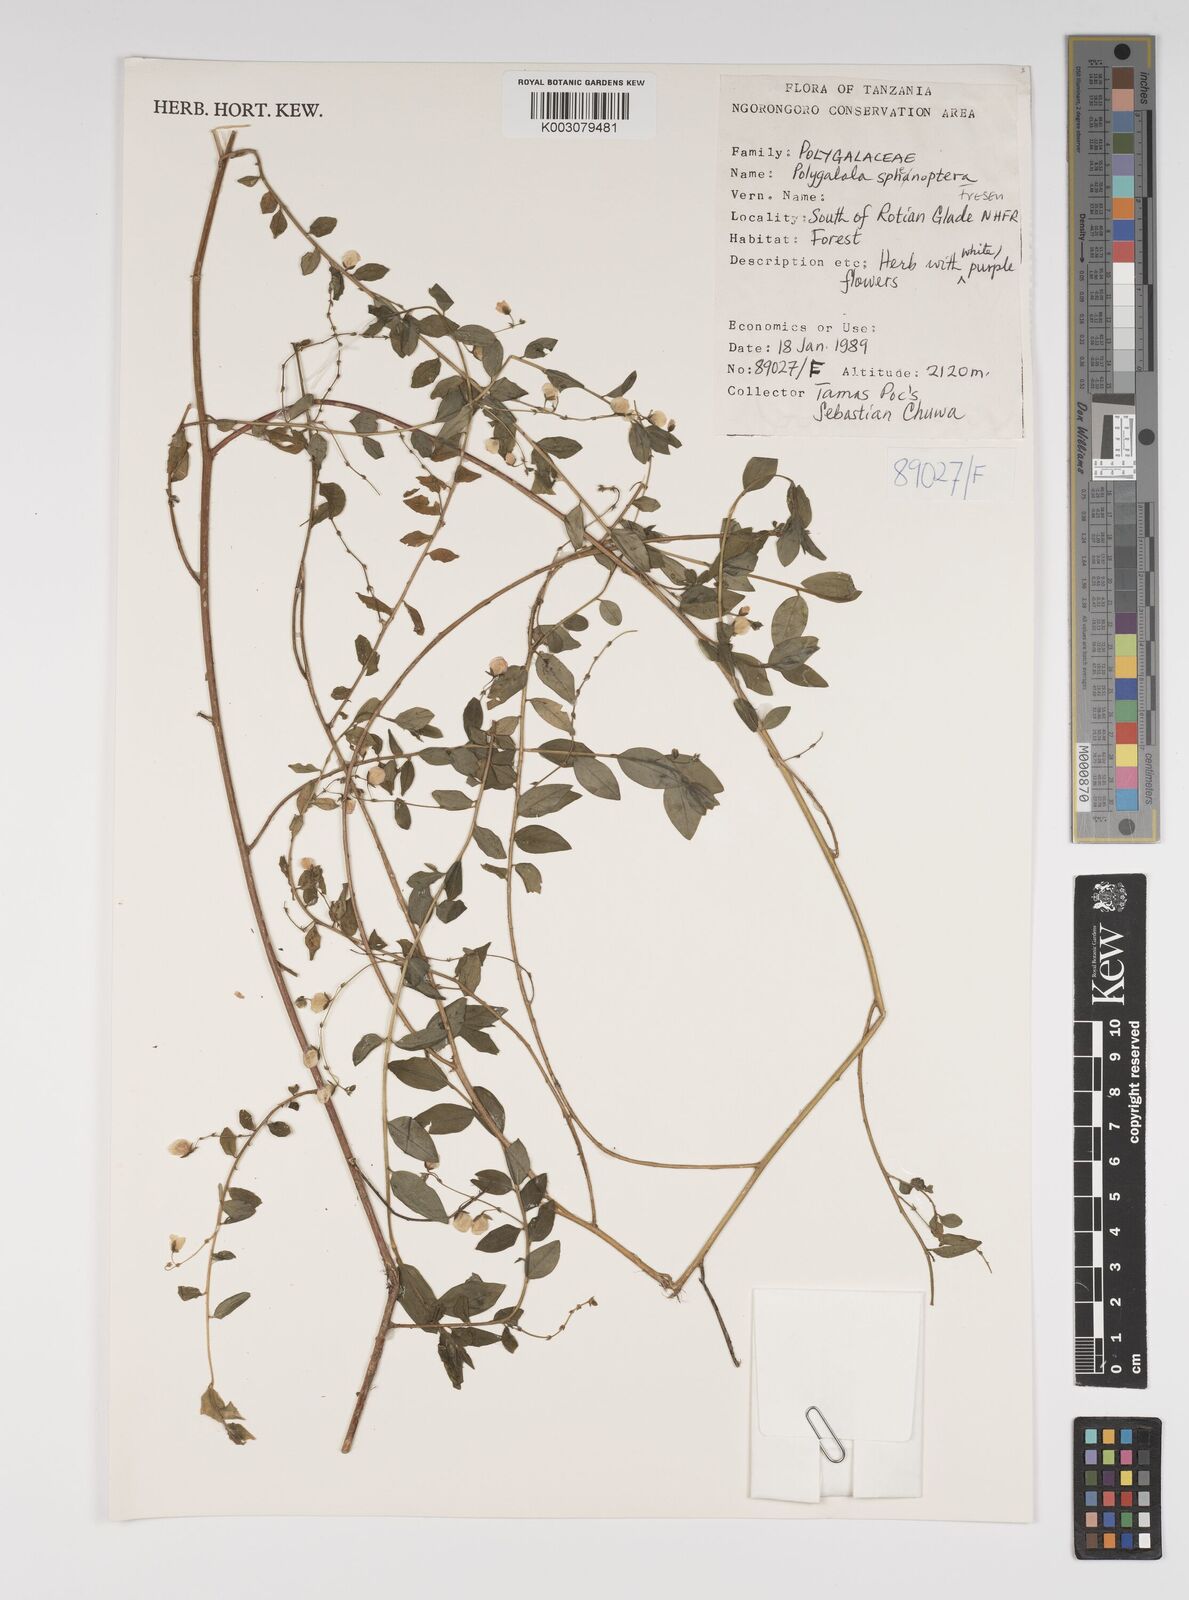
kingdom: Plantae
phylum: Tracheophyta
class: Magnoliopsida
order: Fabales
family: Polygalaceae
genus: Polygala
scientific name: Polygala sphenoptera
